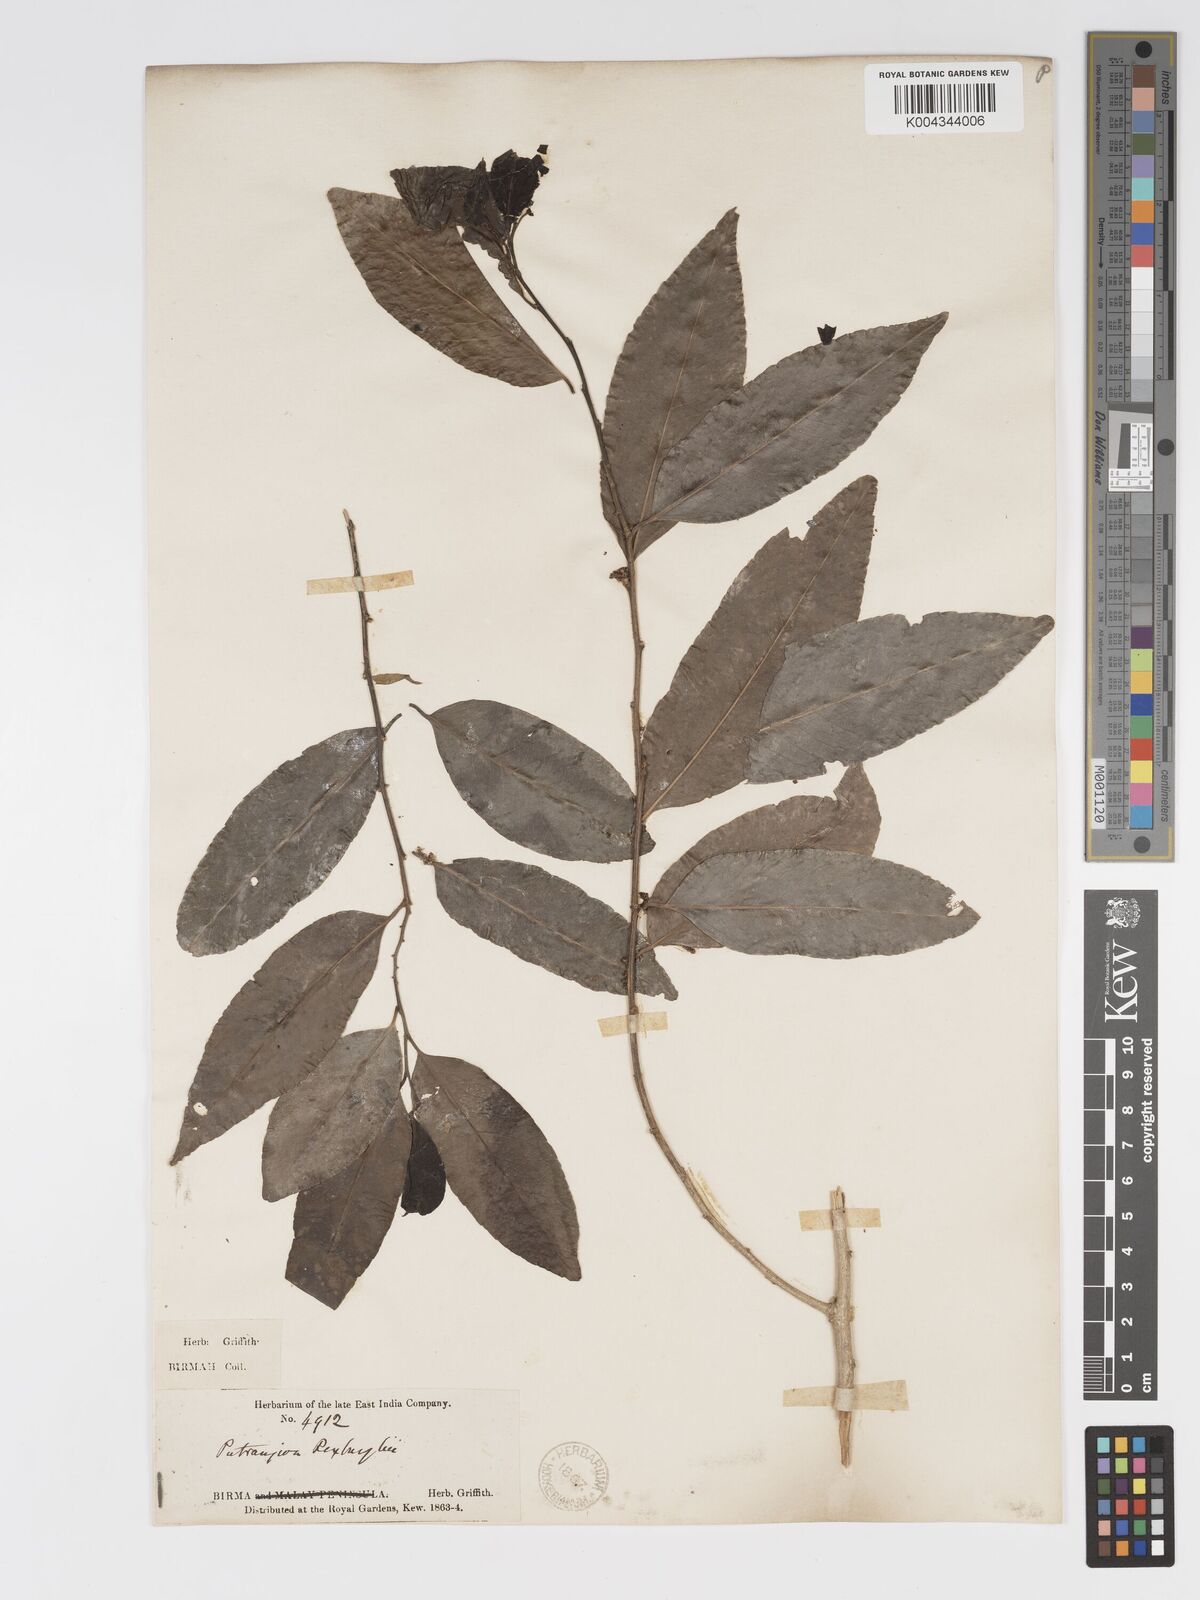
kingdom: Plantae
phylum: Tracheophyta
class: Magnoliopsida
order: Malpighiales
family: Putranjivaceae
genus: Putranjiva
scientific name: Putranjiva roxburghii
